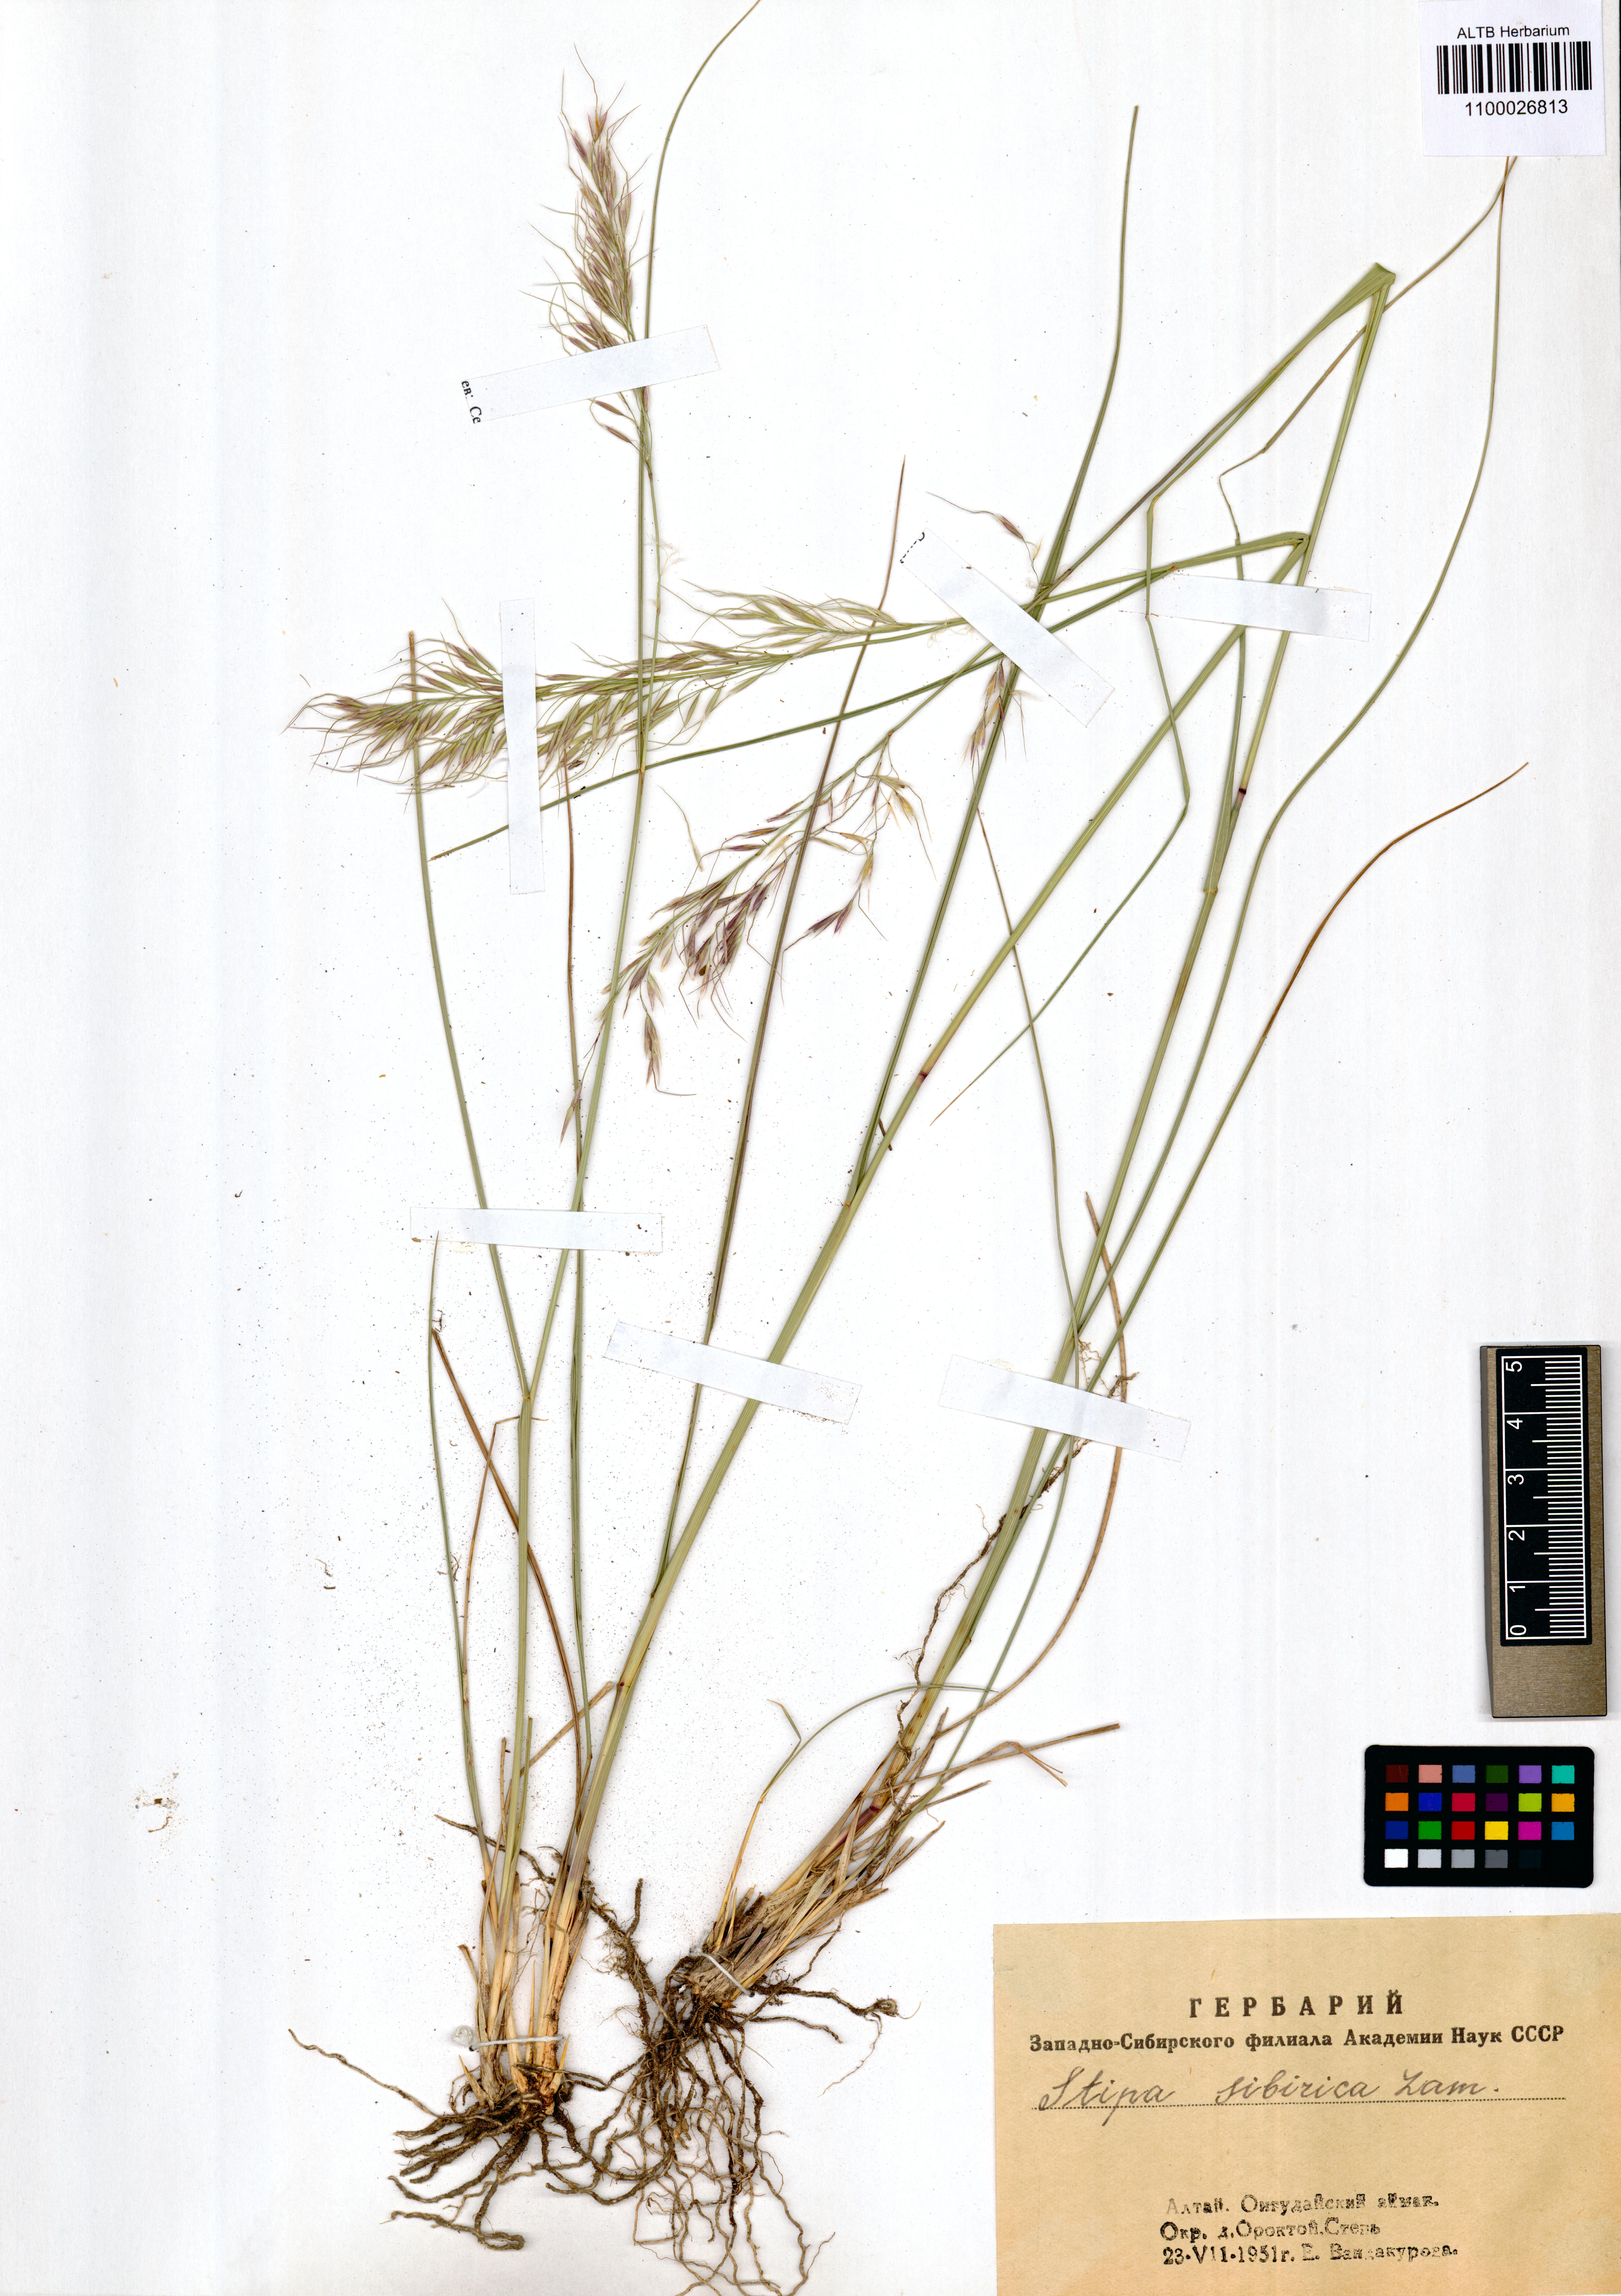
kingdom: Plantae
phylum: Tracheophyta
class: Liliopsida
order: Poales
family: Poaceae
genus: Achnatherum
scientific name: Achnatherum sibiricum
